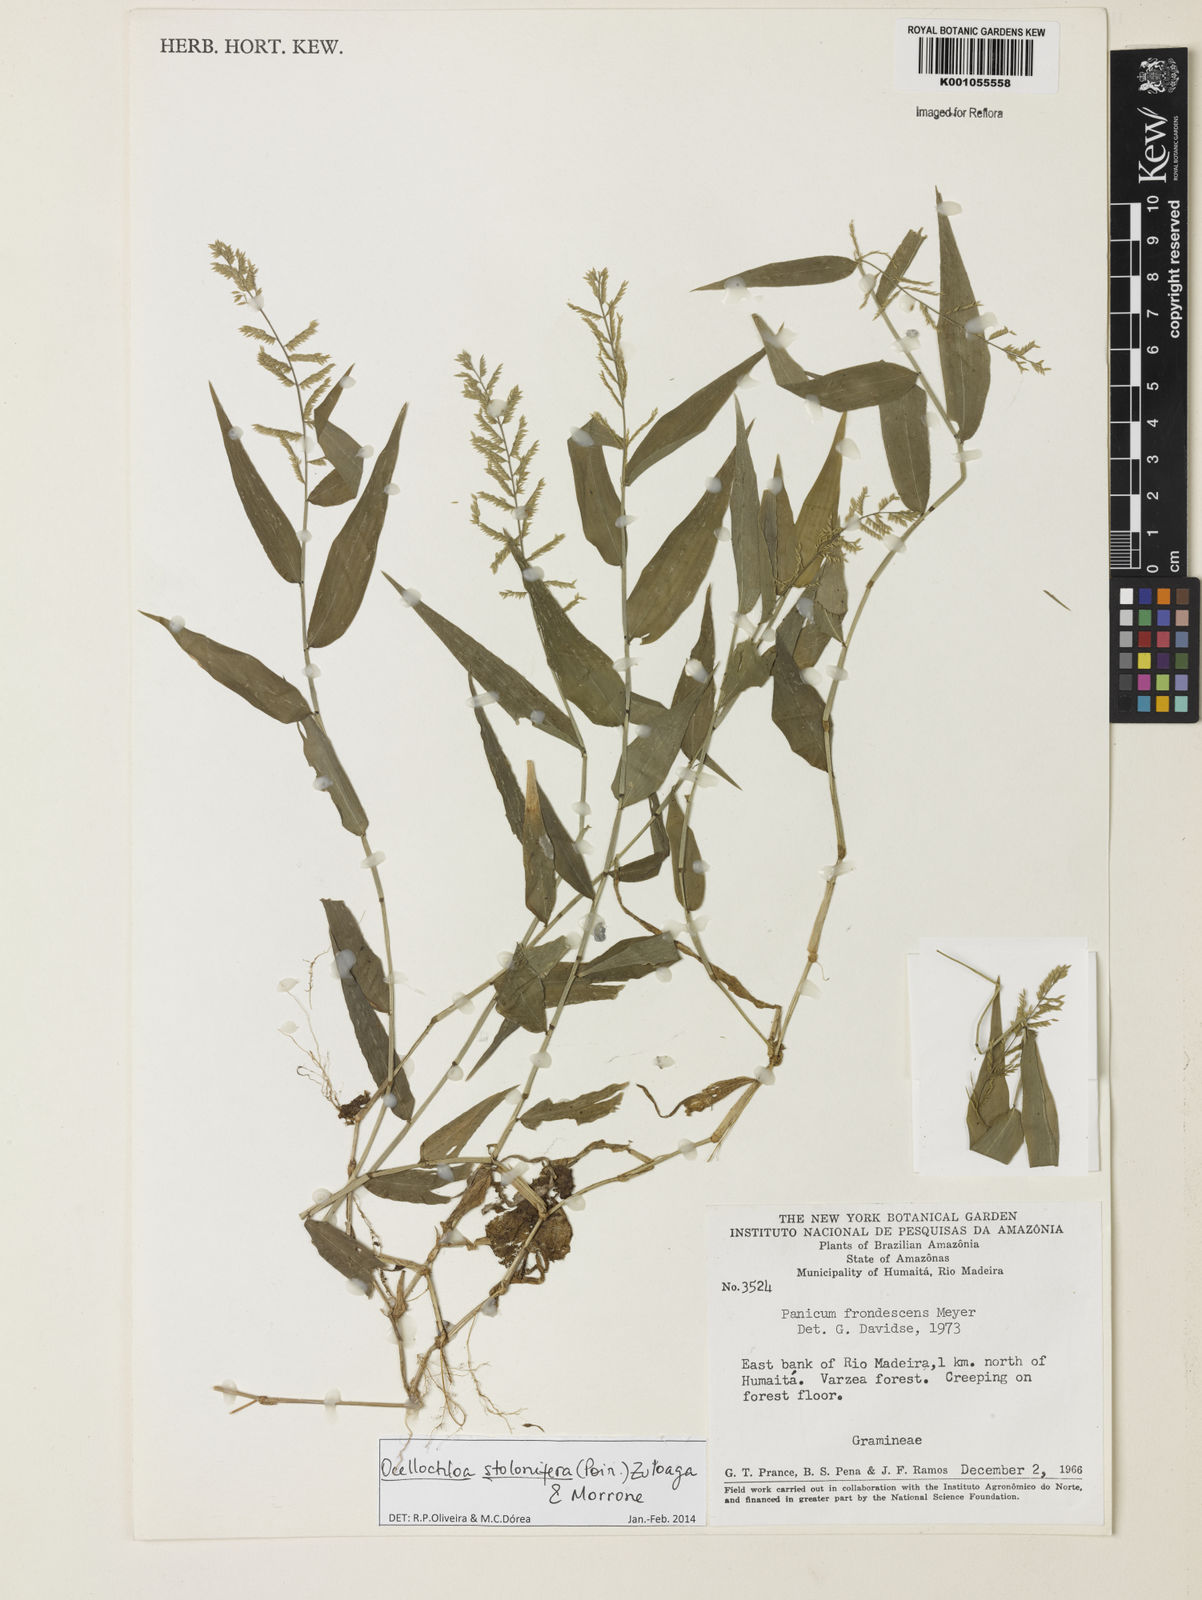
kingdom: Plantae
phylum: Tracheophyta
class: Liliopsida
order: Poales
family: Poaceae
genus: Ocellochloa
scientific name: Ocellochloa stolonifera
